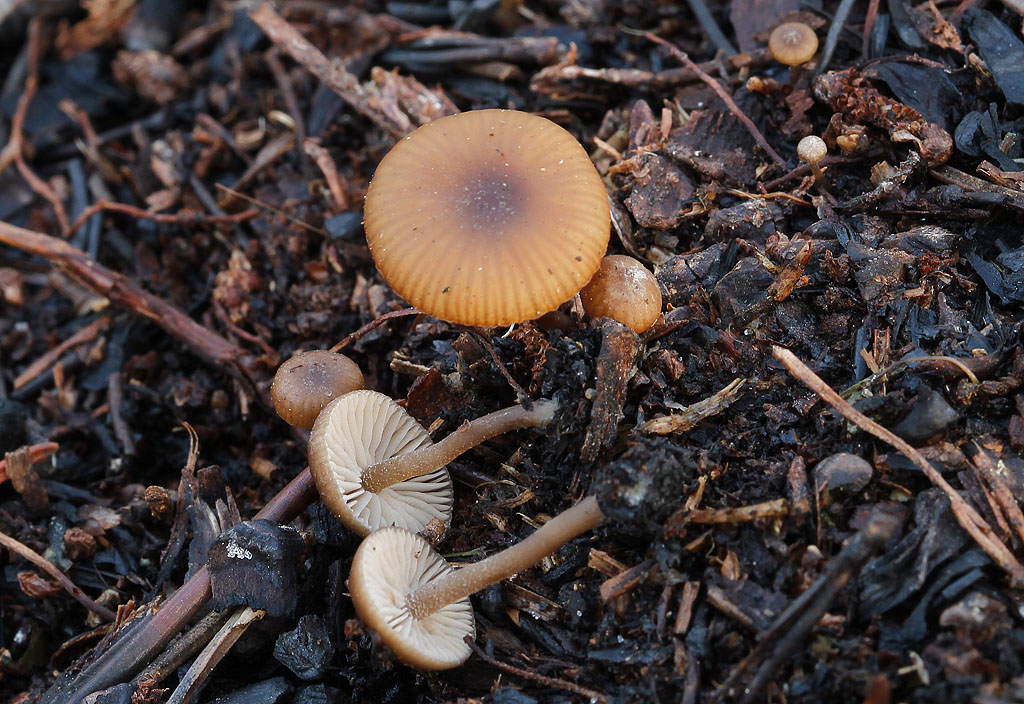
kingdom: Fungi
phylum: Basidiomycota
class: Agaricomycetes
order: Agaricales
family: Lyophyllaceae
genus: Tephrocybe
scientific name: Tephrocybe anthracophila
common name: svedje-gråblad
